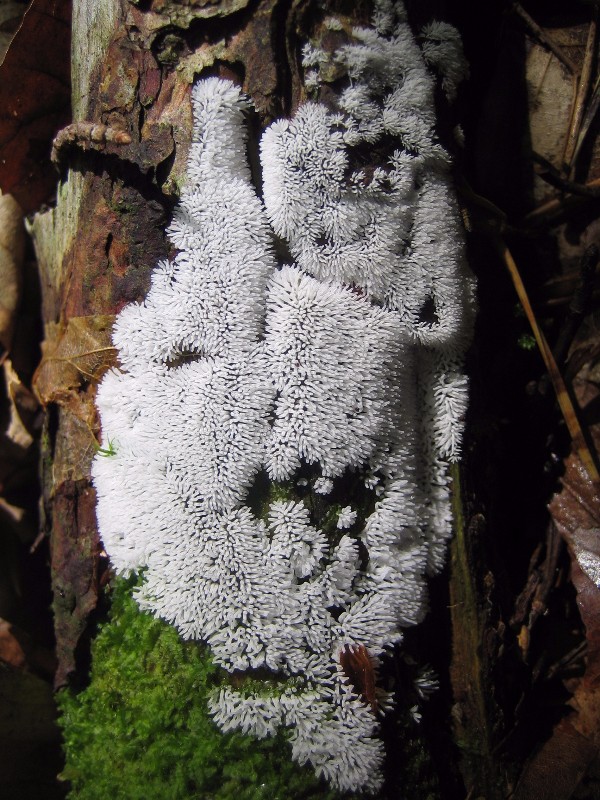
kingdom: Protozoa
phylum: Mycetozoa
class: Protosteliomycetes
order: Ceratiomyxales
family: Ceratiomyxaceae
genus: Ceratiomyxa
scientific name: Ceratiomyxa fruticulosa
